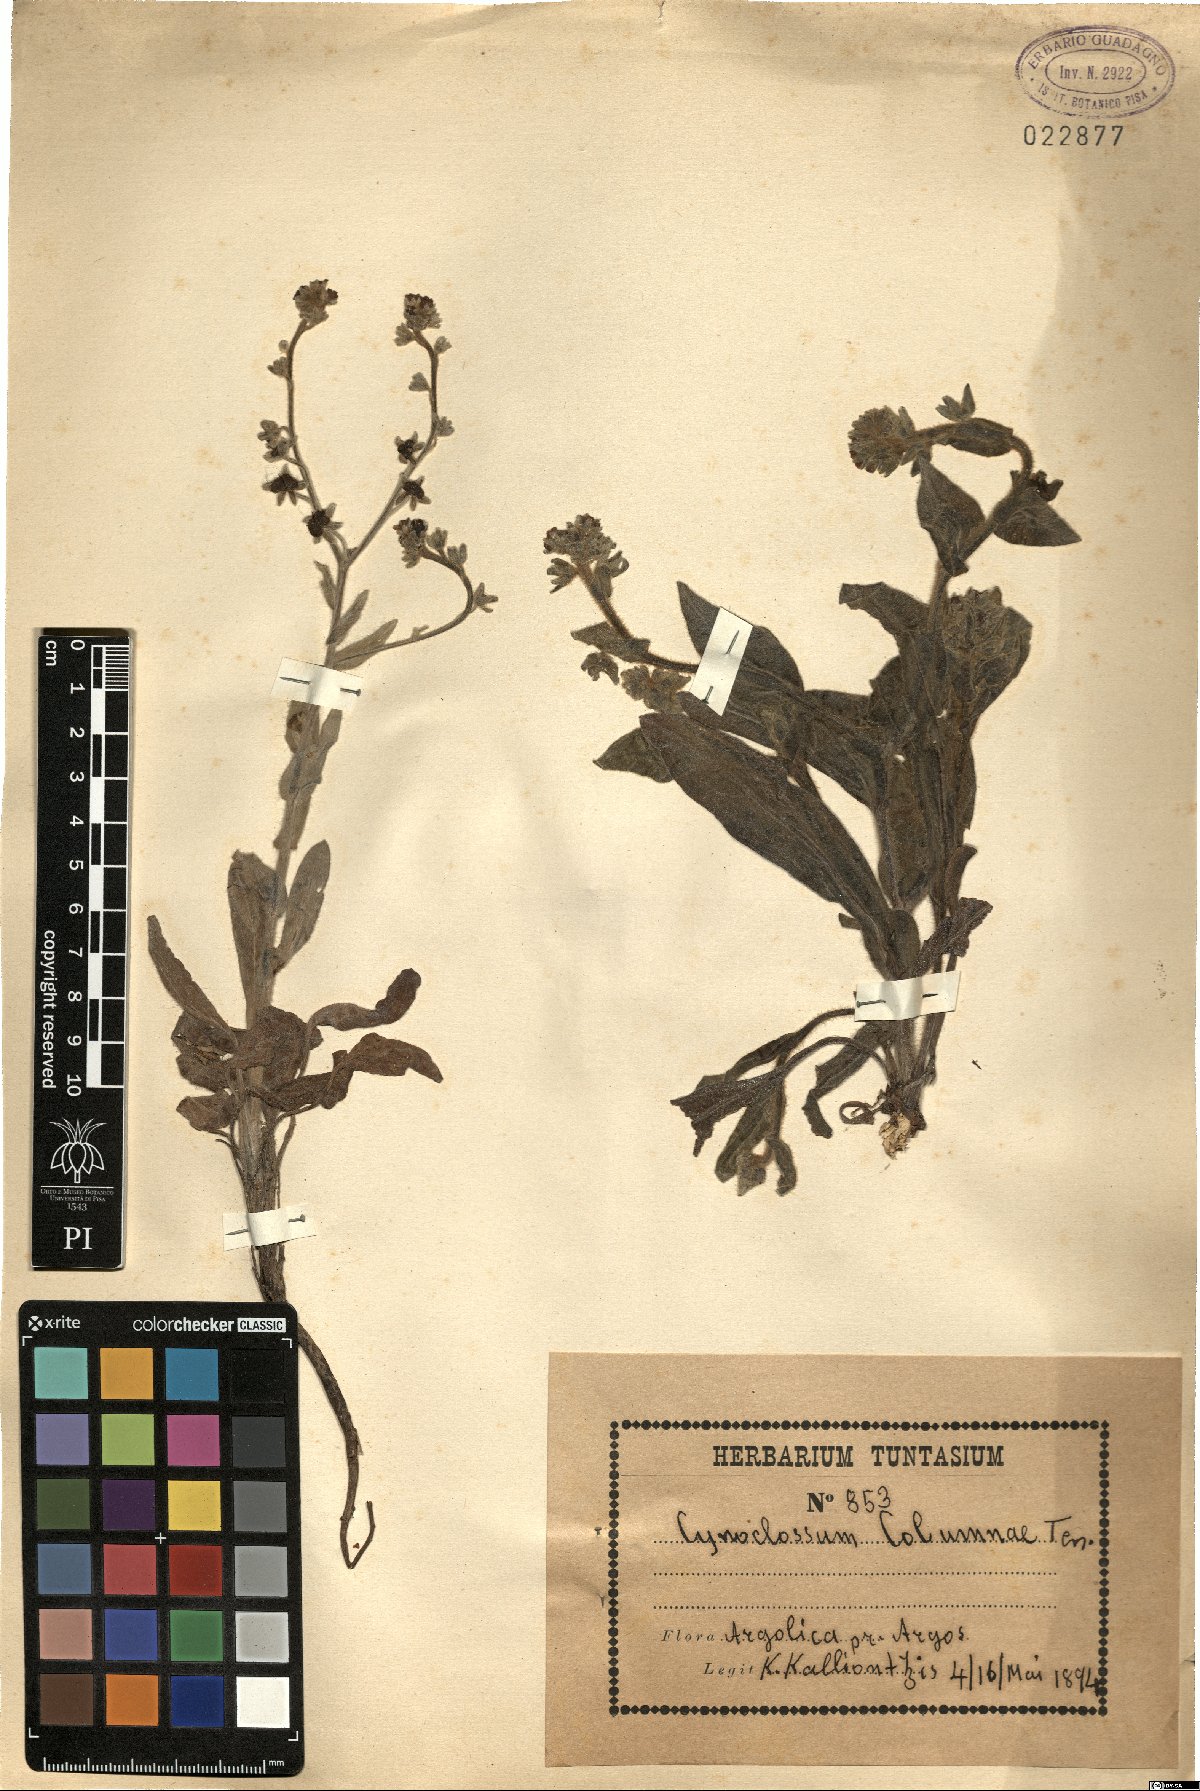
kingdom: Plantae
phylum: Tracheophyta
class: Magnoliopsida
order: Boraginales
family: Boraginaceae
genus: Rindera
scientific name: Rindera columnae
